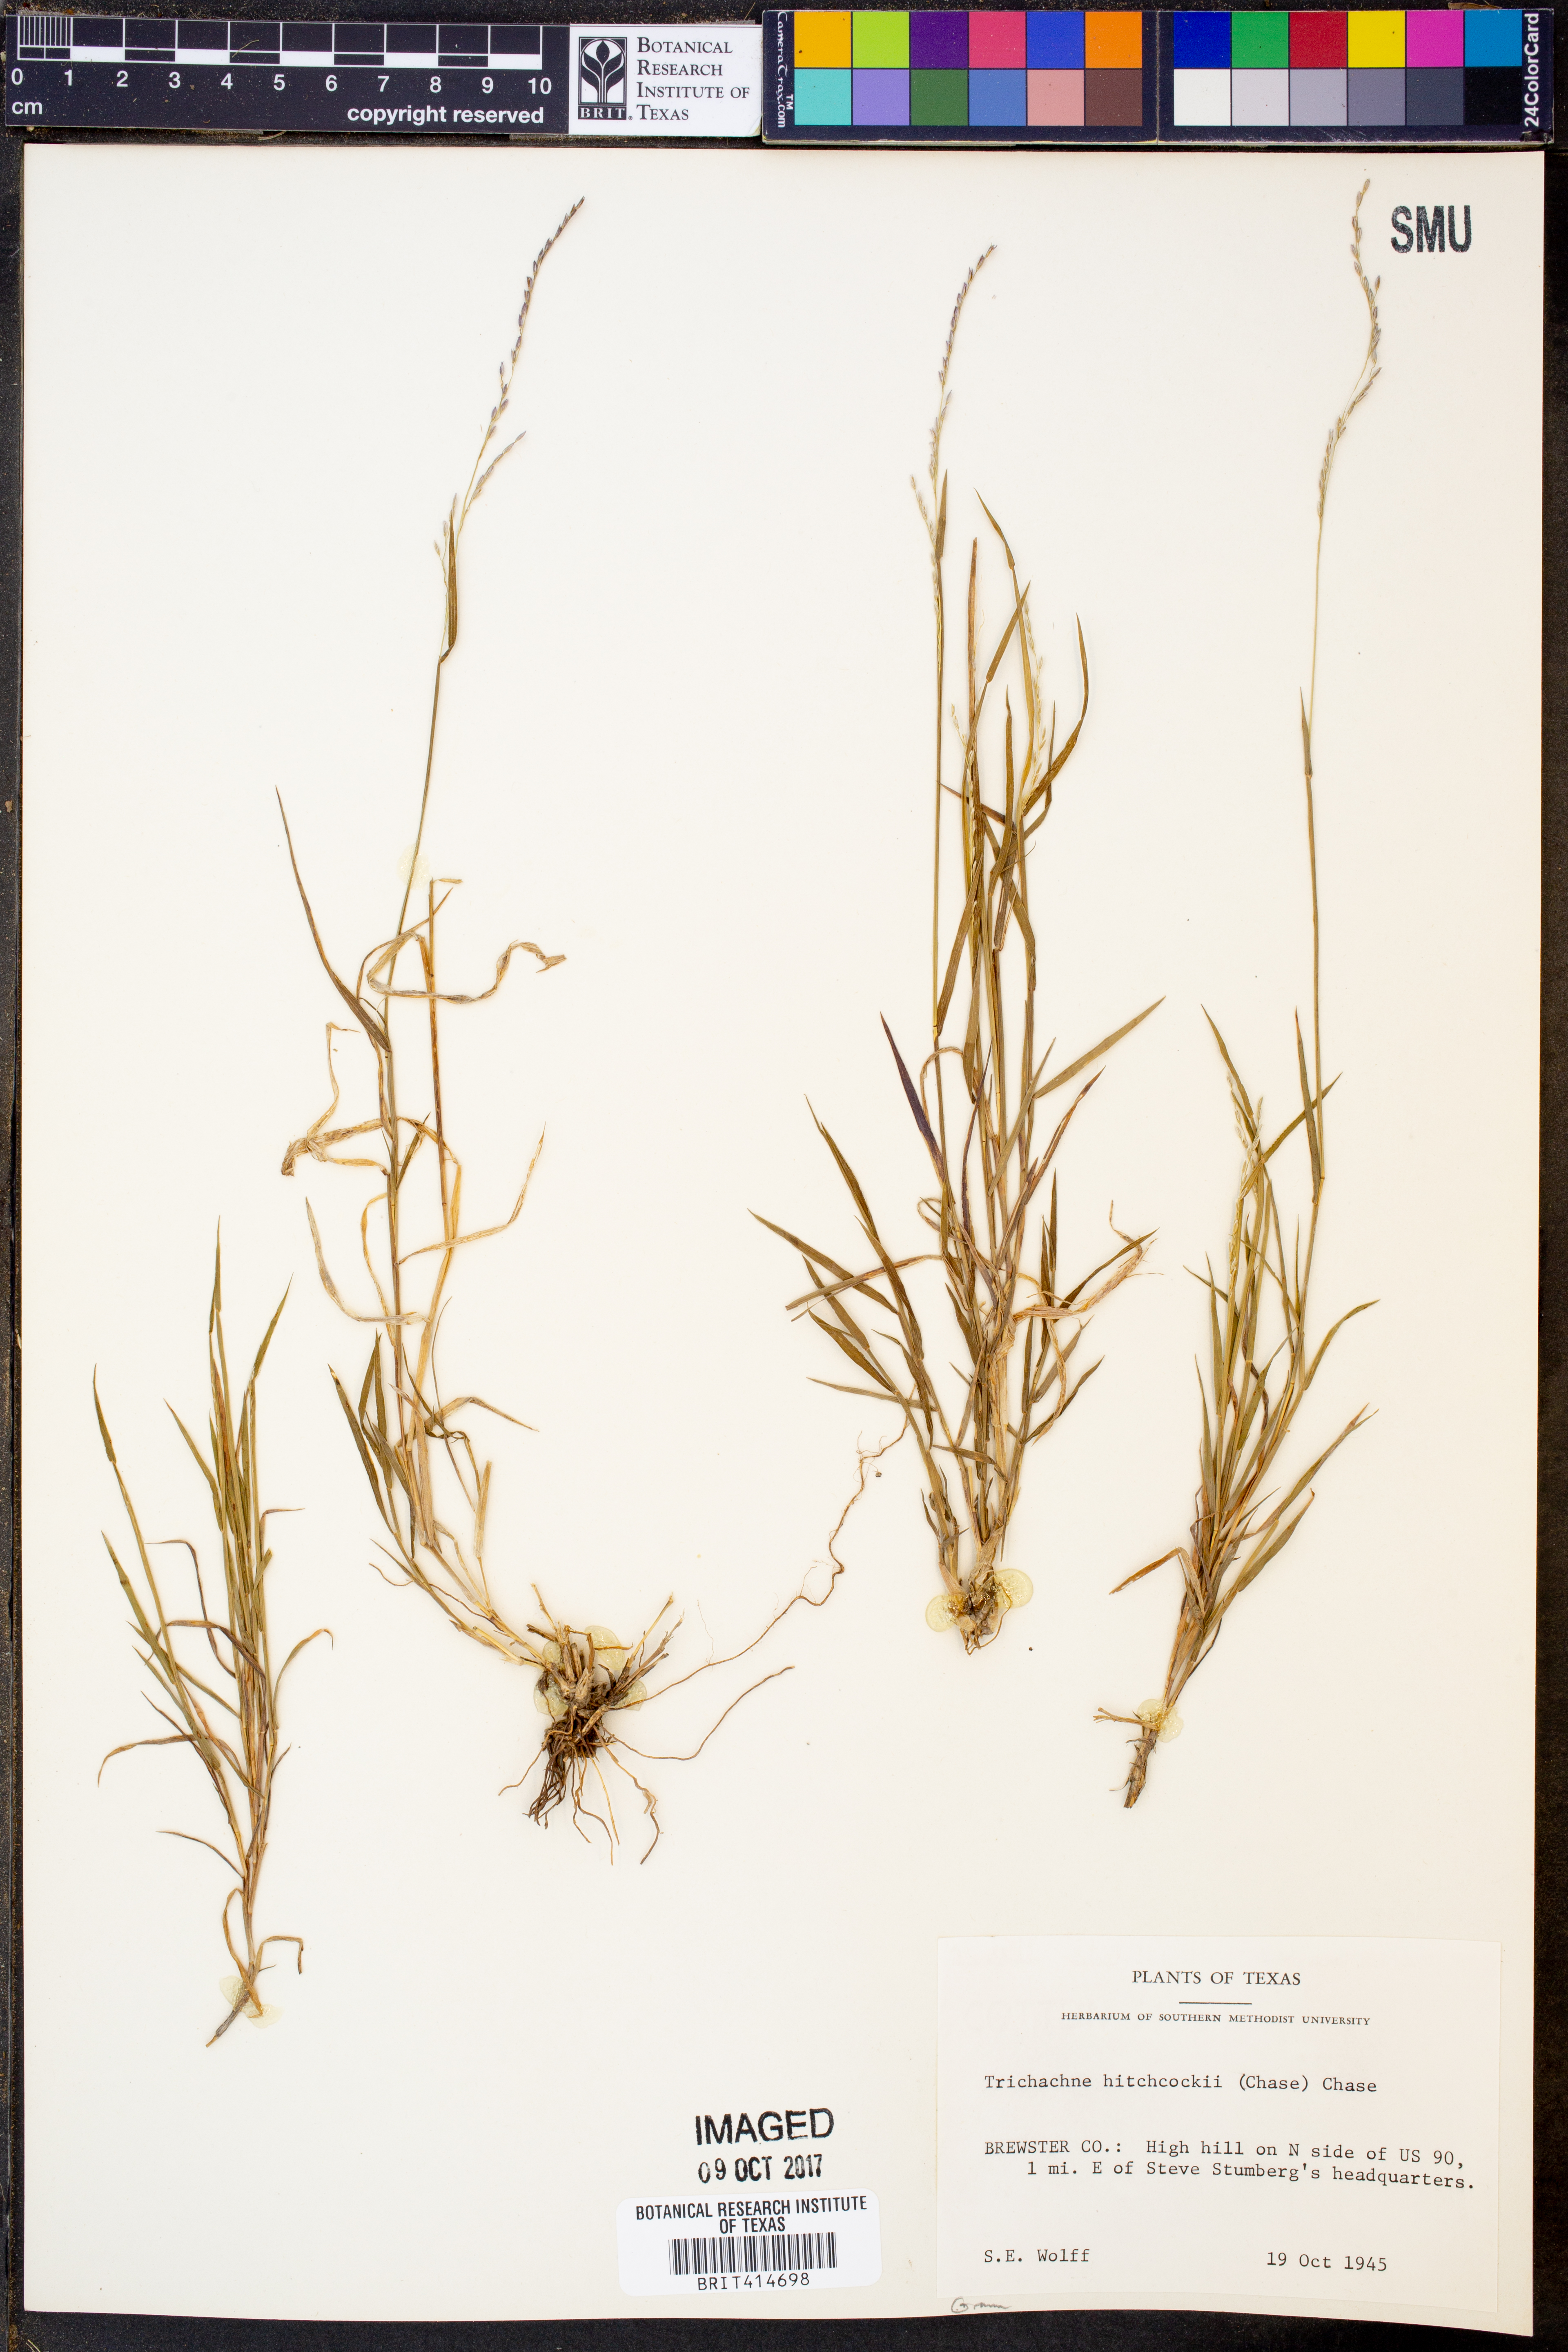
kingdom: Plantae
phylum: Tracheophyta
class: Liliopsida
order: Poales
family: Poaceae
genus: Digitaria
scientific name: Digitaria hitchcockii
